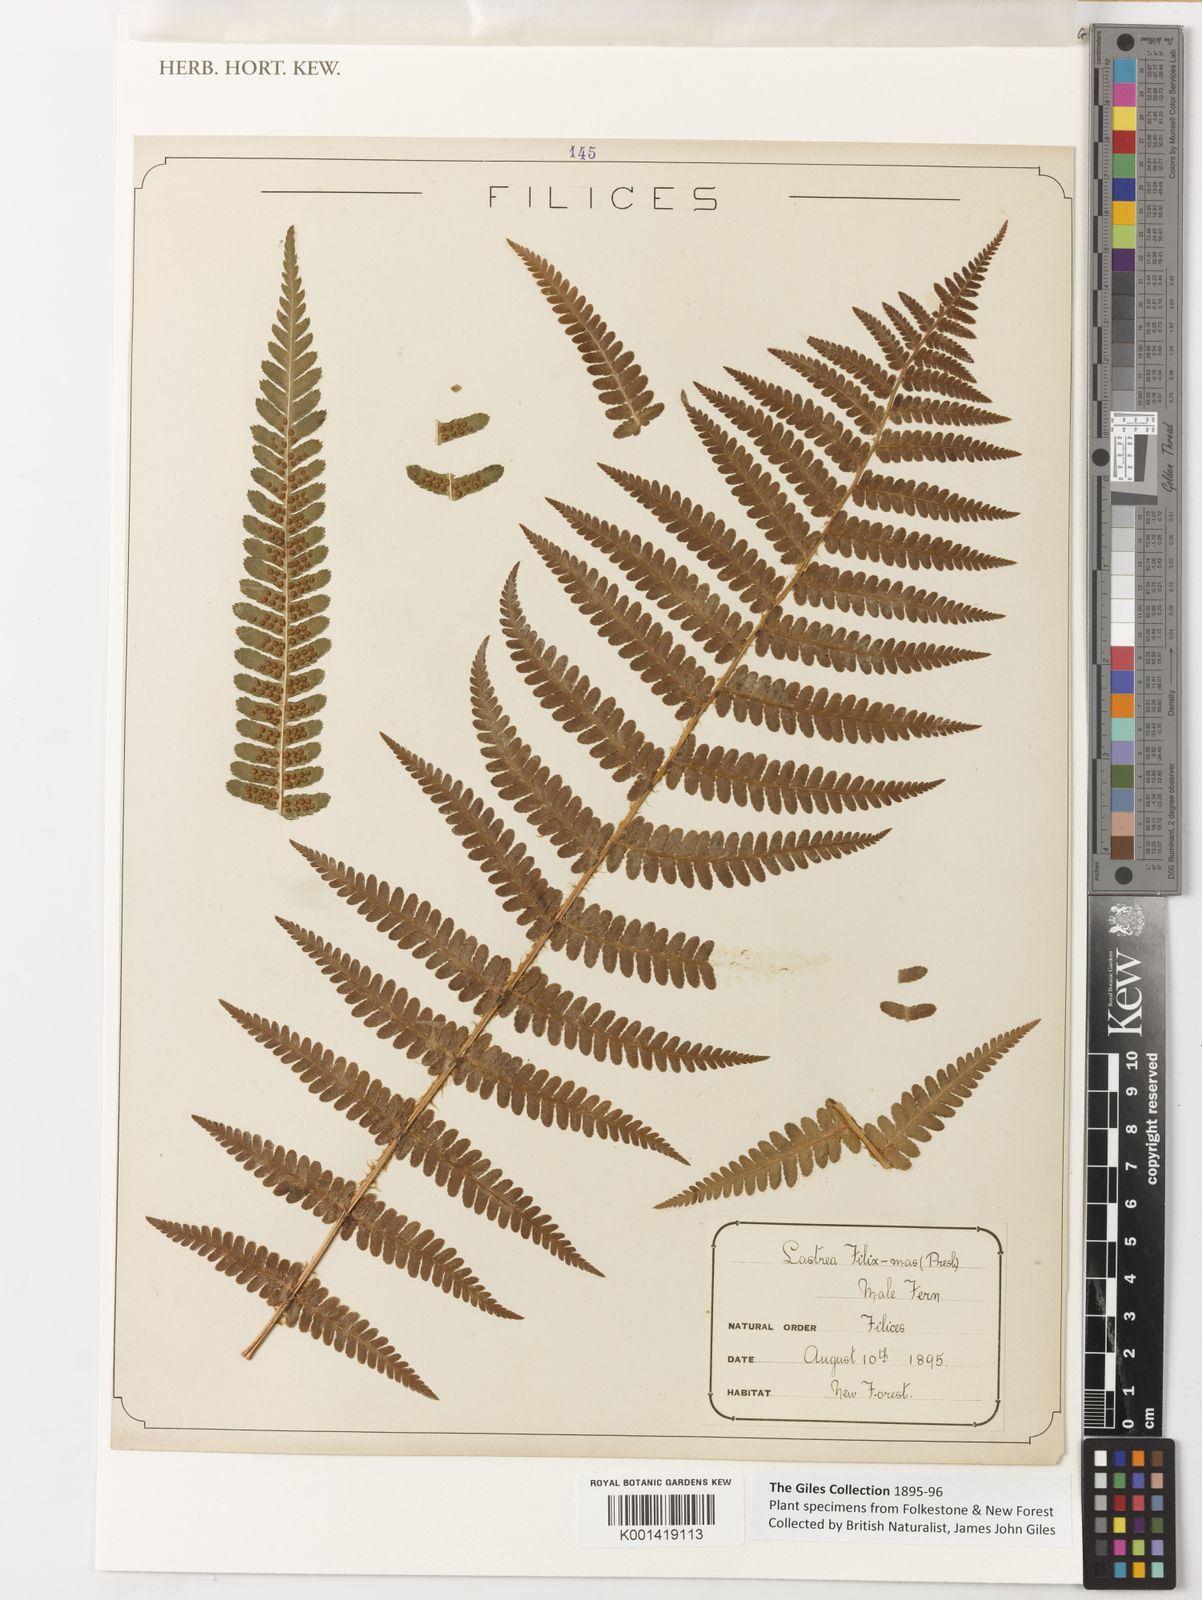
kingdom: Plantae
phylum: Tracheophyta
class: Polypodiopsida
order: Polypodiales
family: Dryopteridaceae
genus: Dryopteris
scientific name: Dryopteris filix-mas
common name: Male fern
